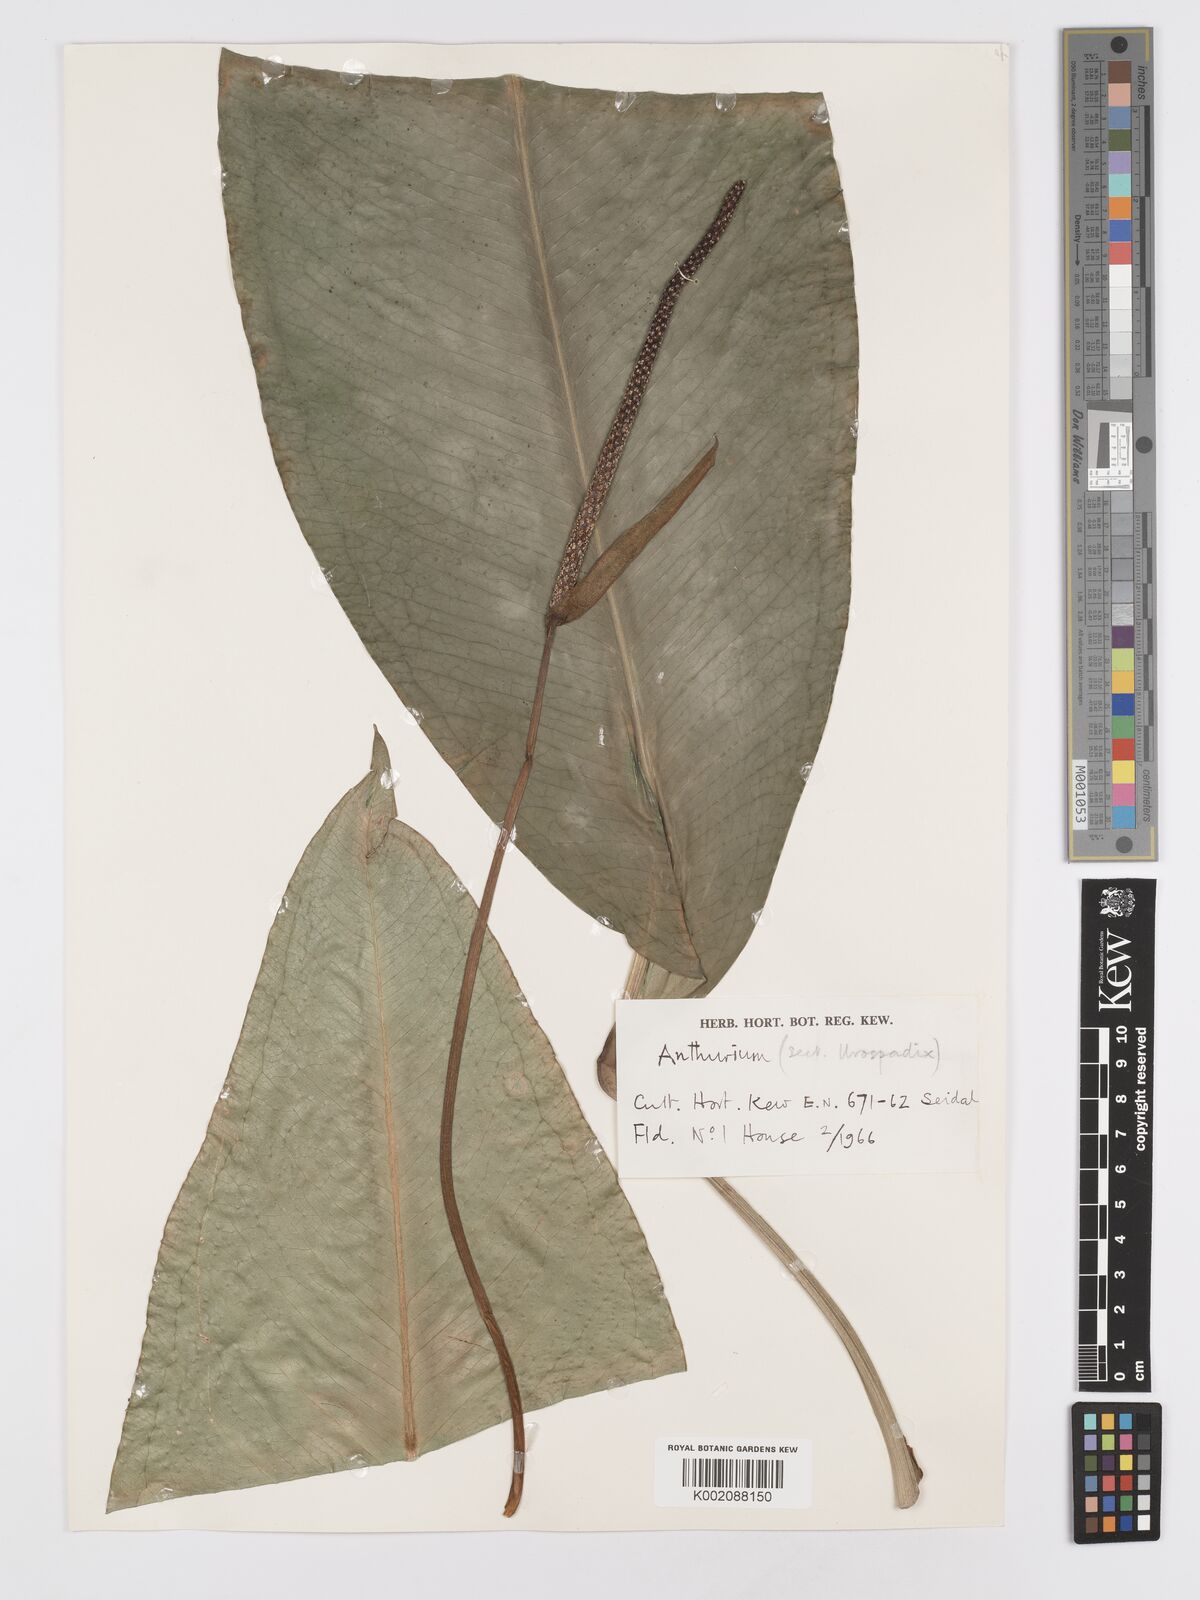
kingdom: Plantae
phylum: Tracheophyta
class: Liliopsida
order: Alismatales
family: Araceae
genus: Anthurium
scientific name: Anthurium
